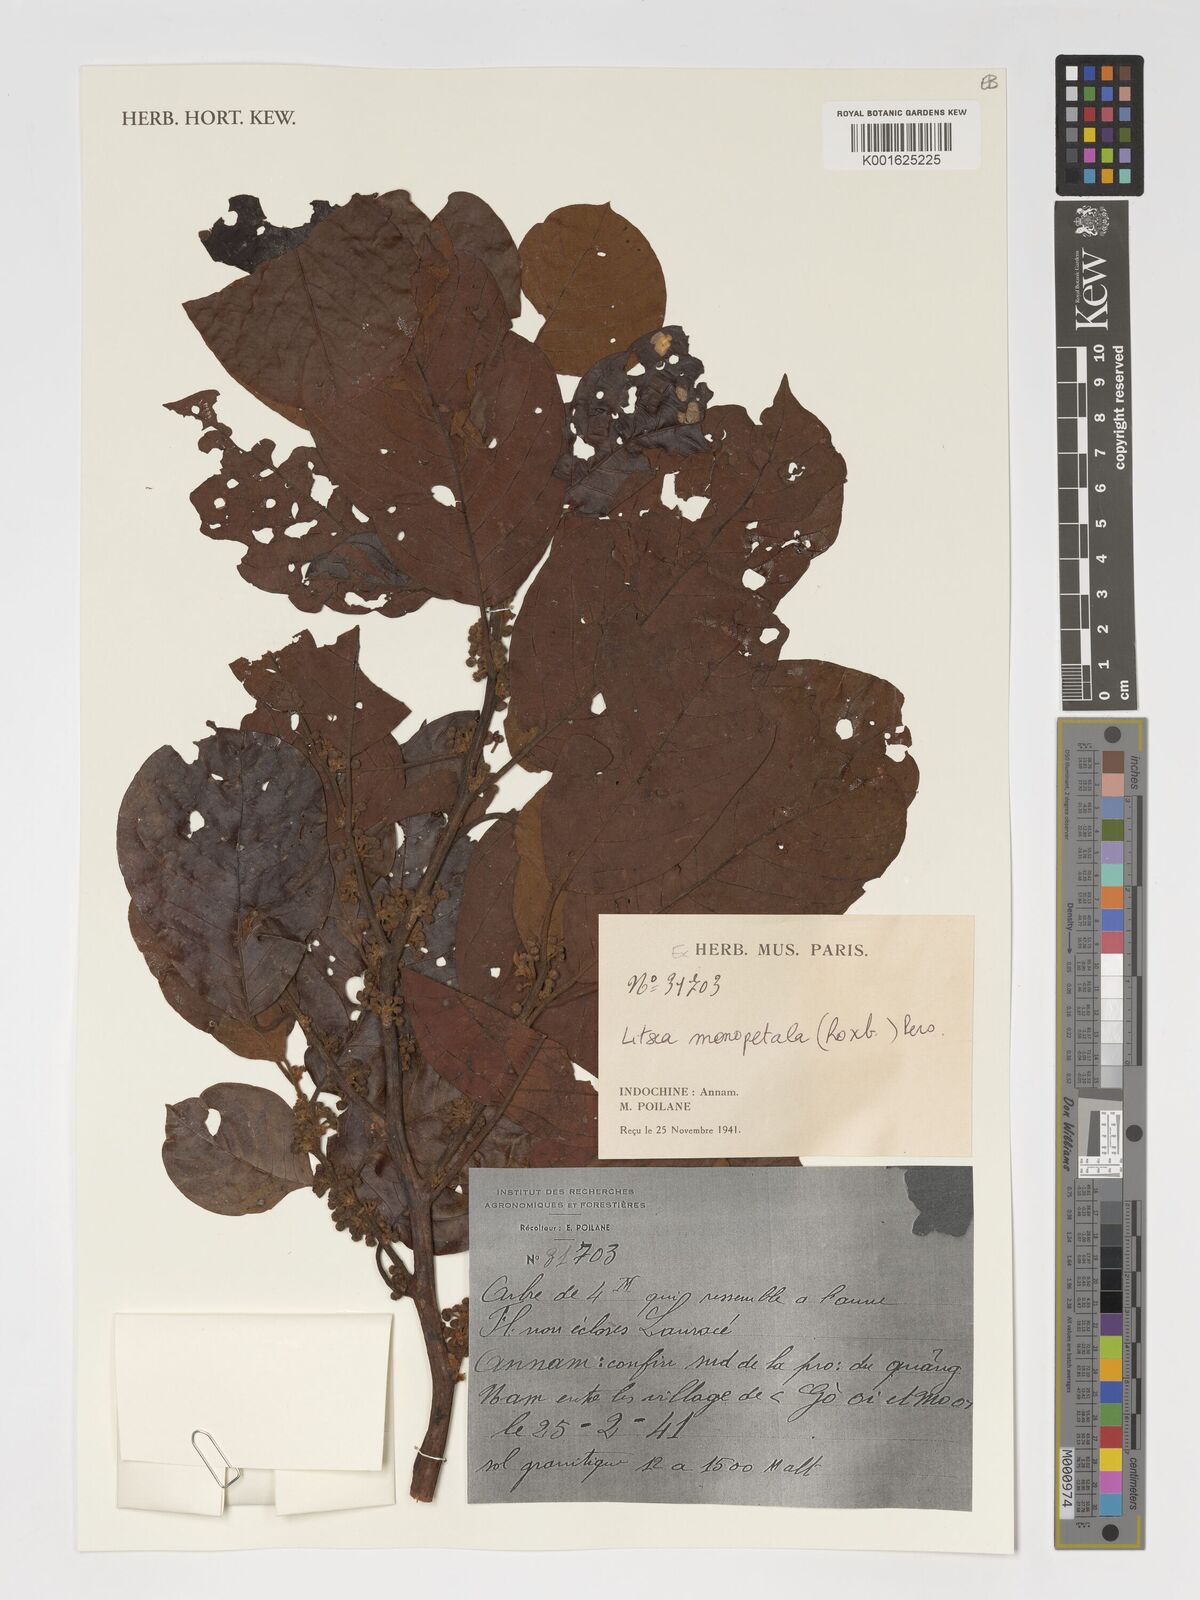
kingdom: Plantae
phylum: Tracheophyta
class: Magnoliopsida
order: Laurales
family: Lauraceae
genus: Litsea
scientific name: Litsea monopetala
